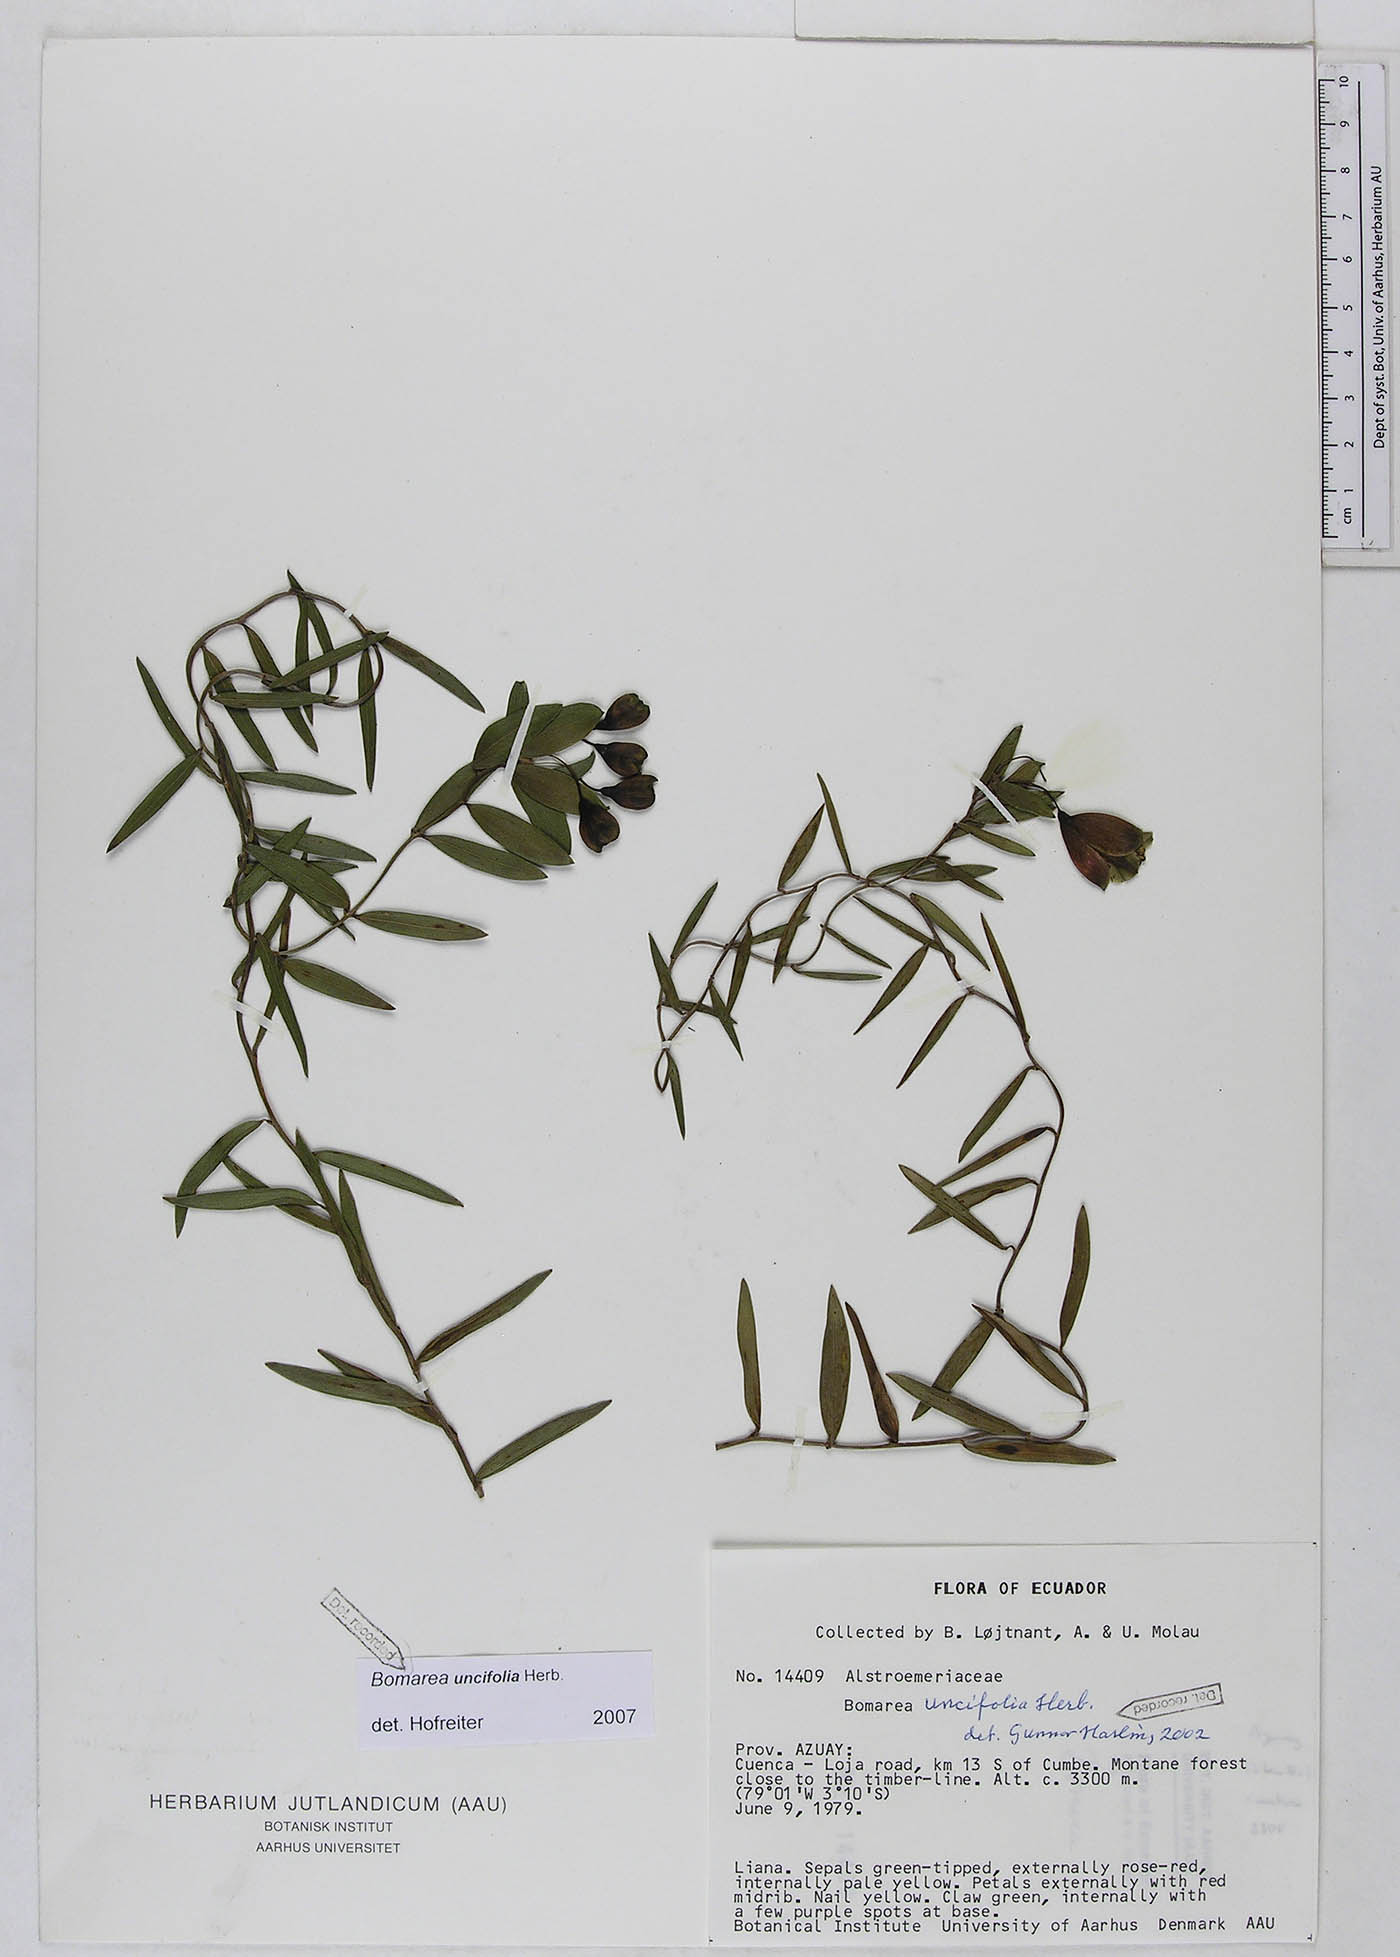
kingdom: Plantae
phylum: Tracheophyta
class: Liliopsida
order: Liliales
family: Alstroemeriaceae
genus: Bomarea
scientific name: Bomarea uncifolia
